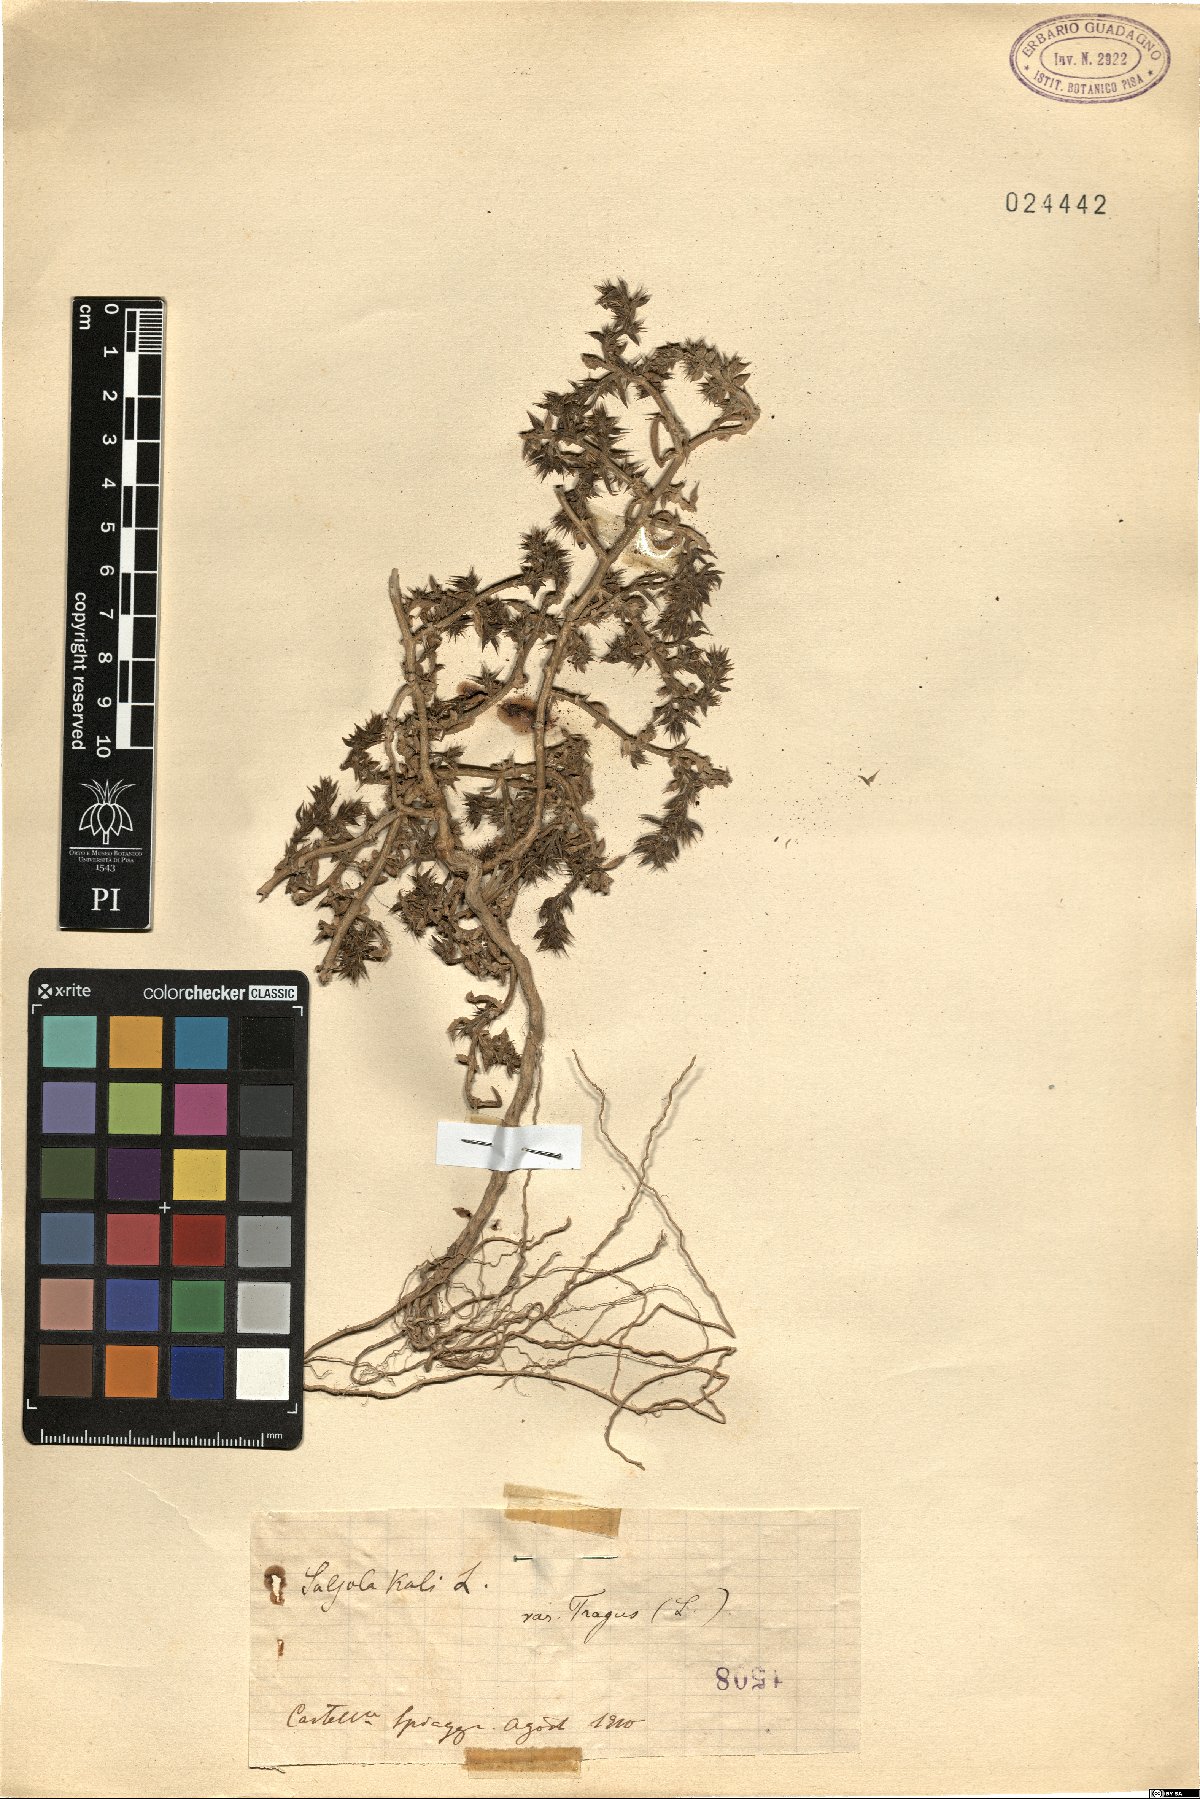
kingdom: Plantae
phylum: Tracheophyta
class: Magnoliopsida
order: Caryophyllales
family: Amaranthaceae
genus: Salsola
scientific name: Salsola tragus
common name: Prickly russian thistle
